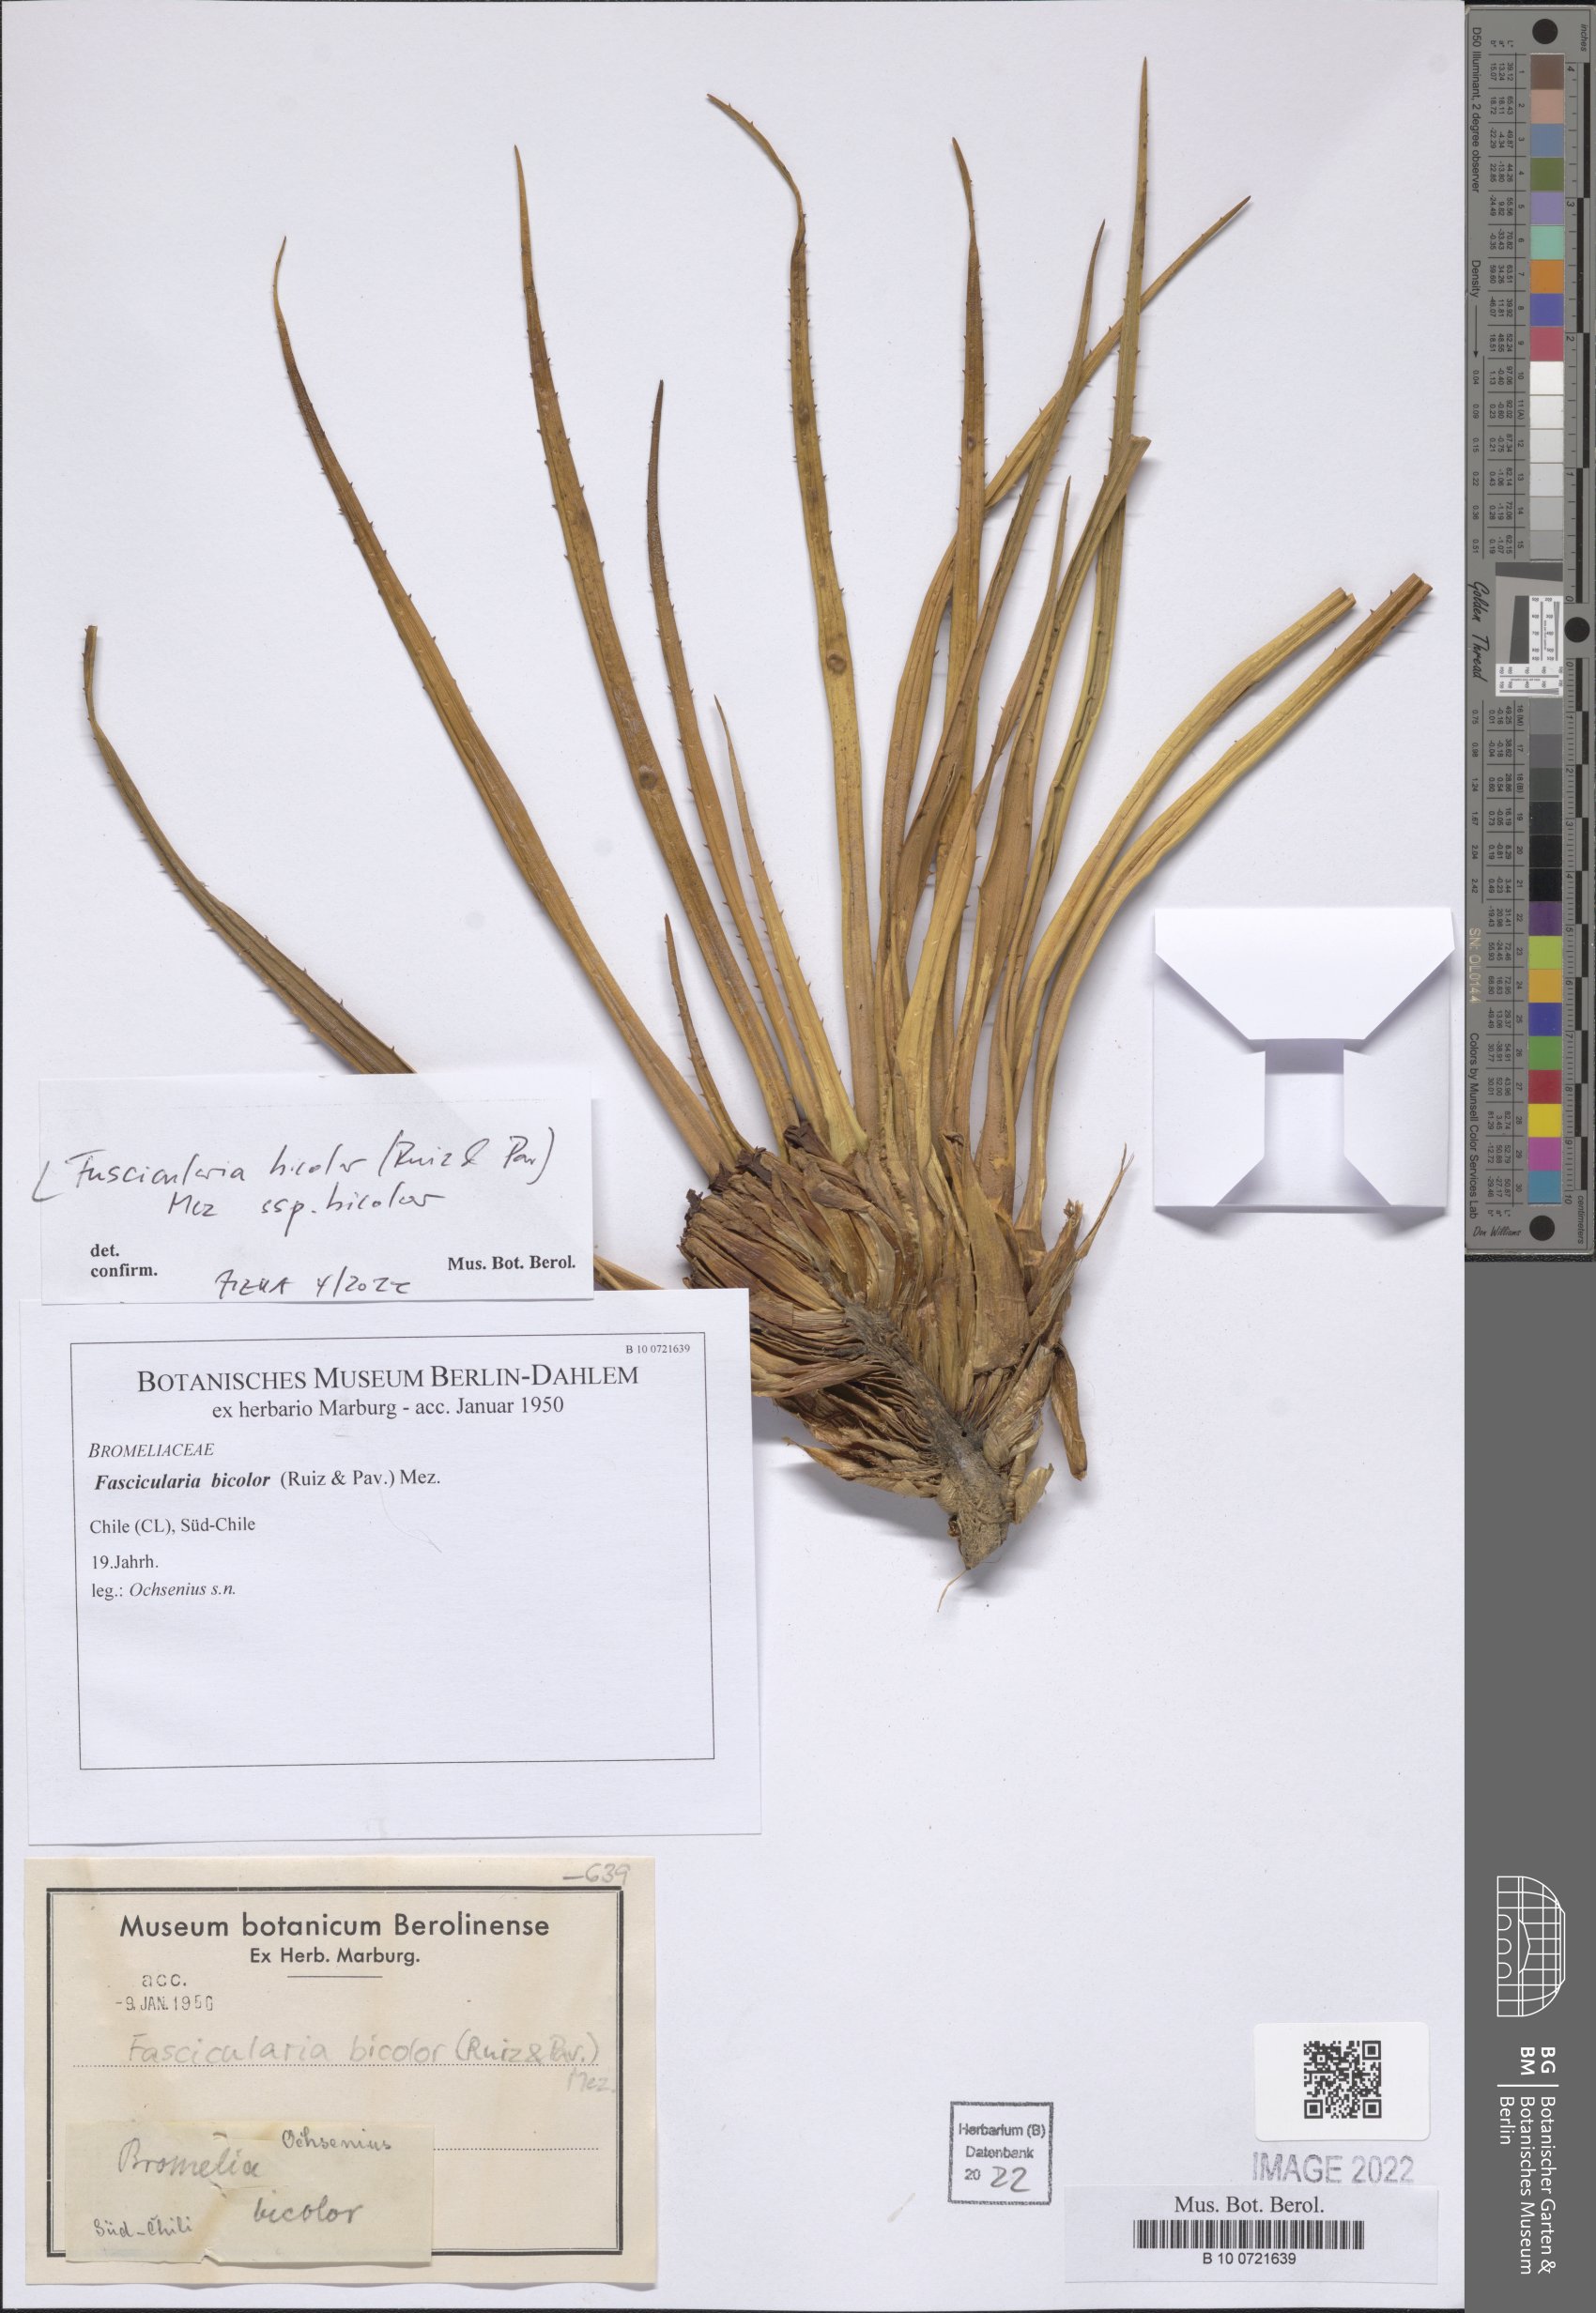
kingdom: Plantae
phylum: Tracheophyta
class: Liliopsida
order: Poales
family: Bromeliaceae
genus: Fascicularia
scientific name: Fascicularia bicolor
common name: Rhodostachys
